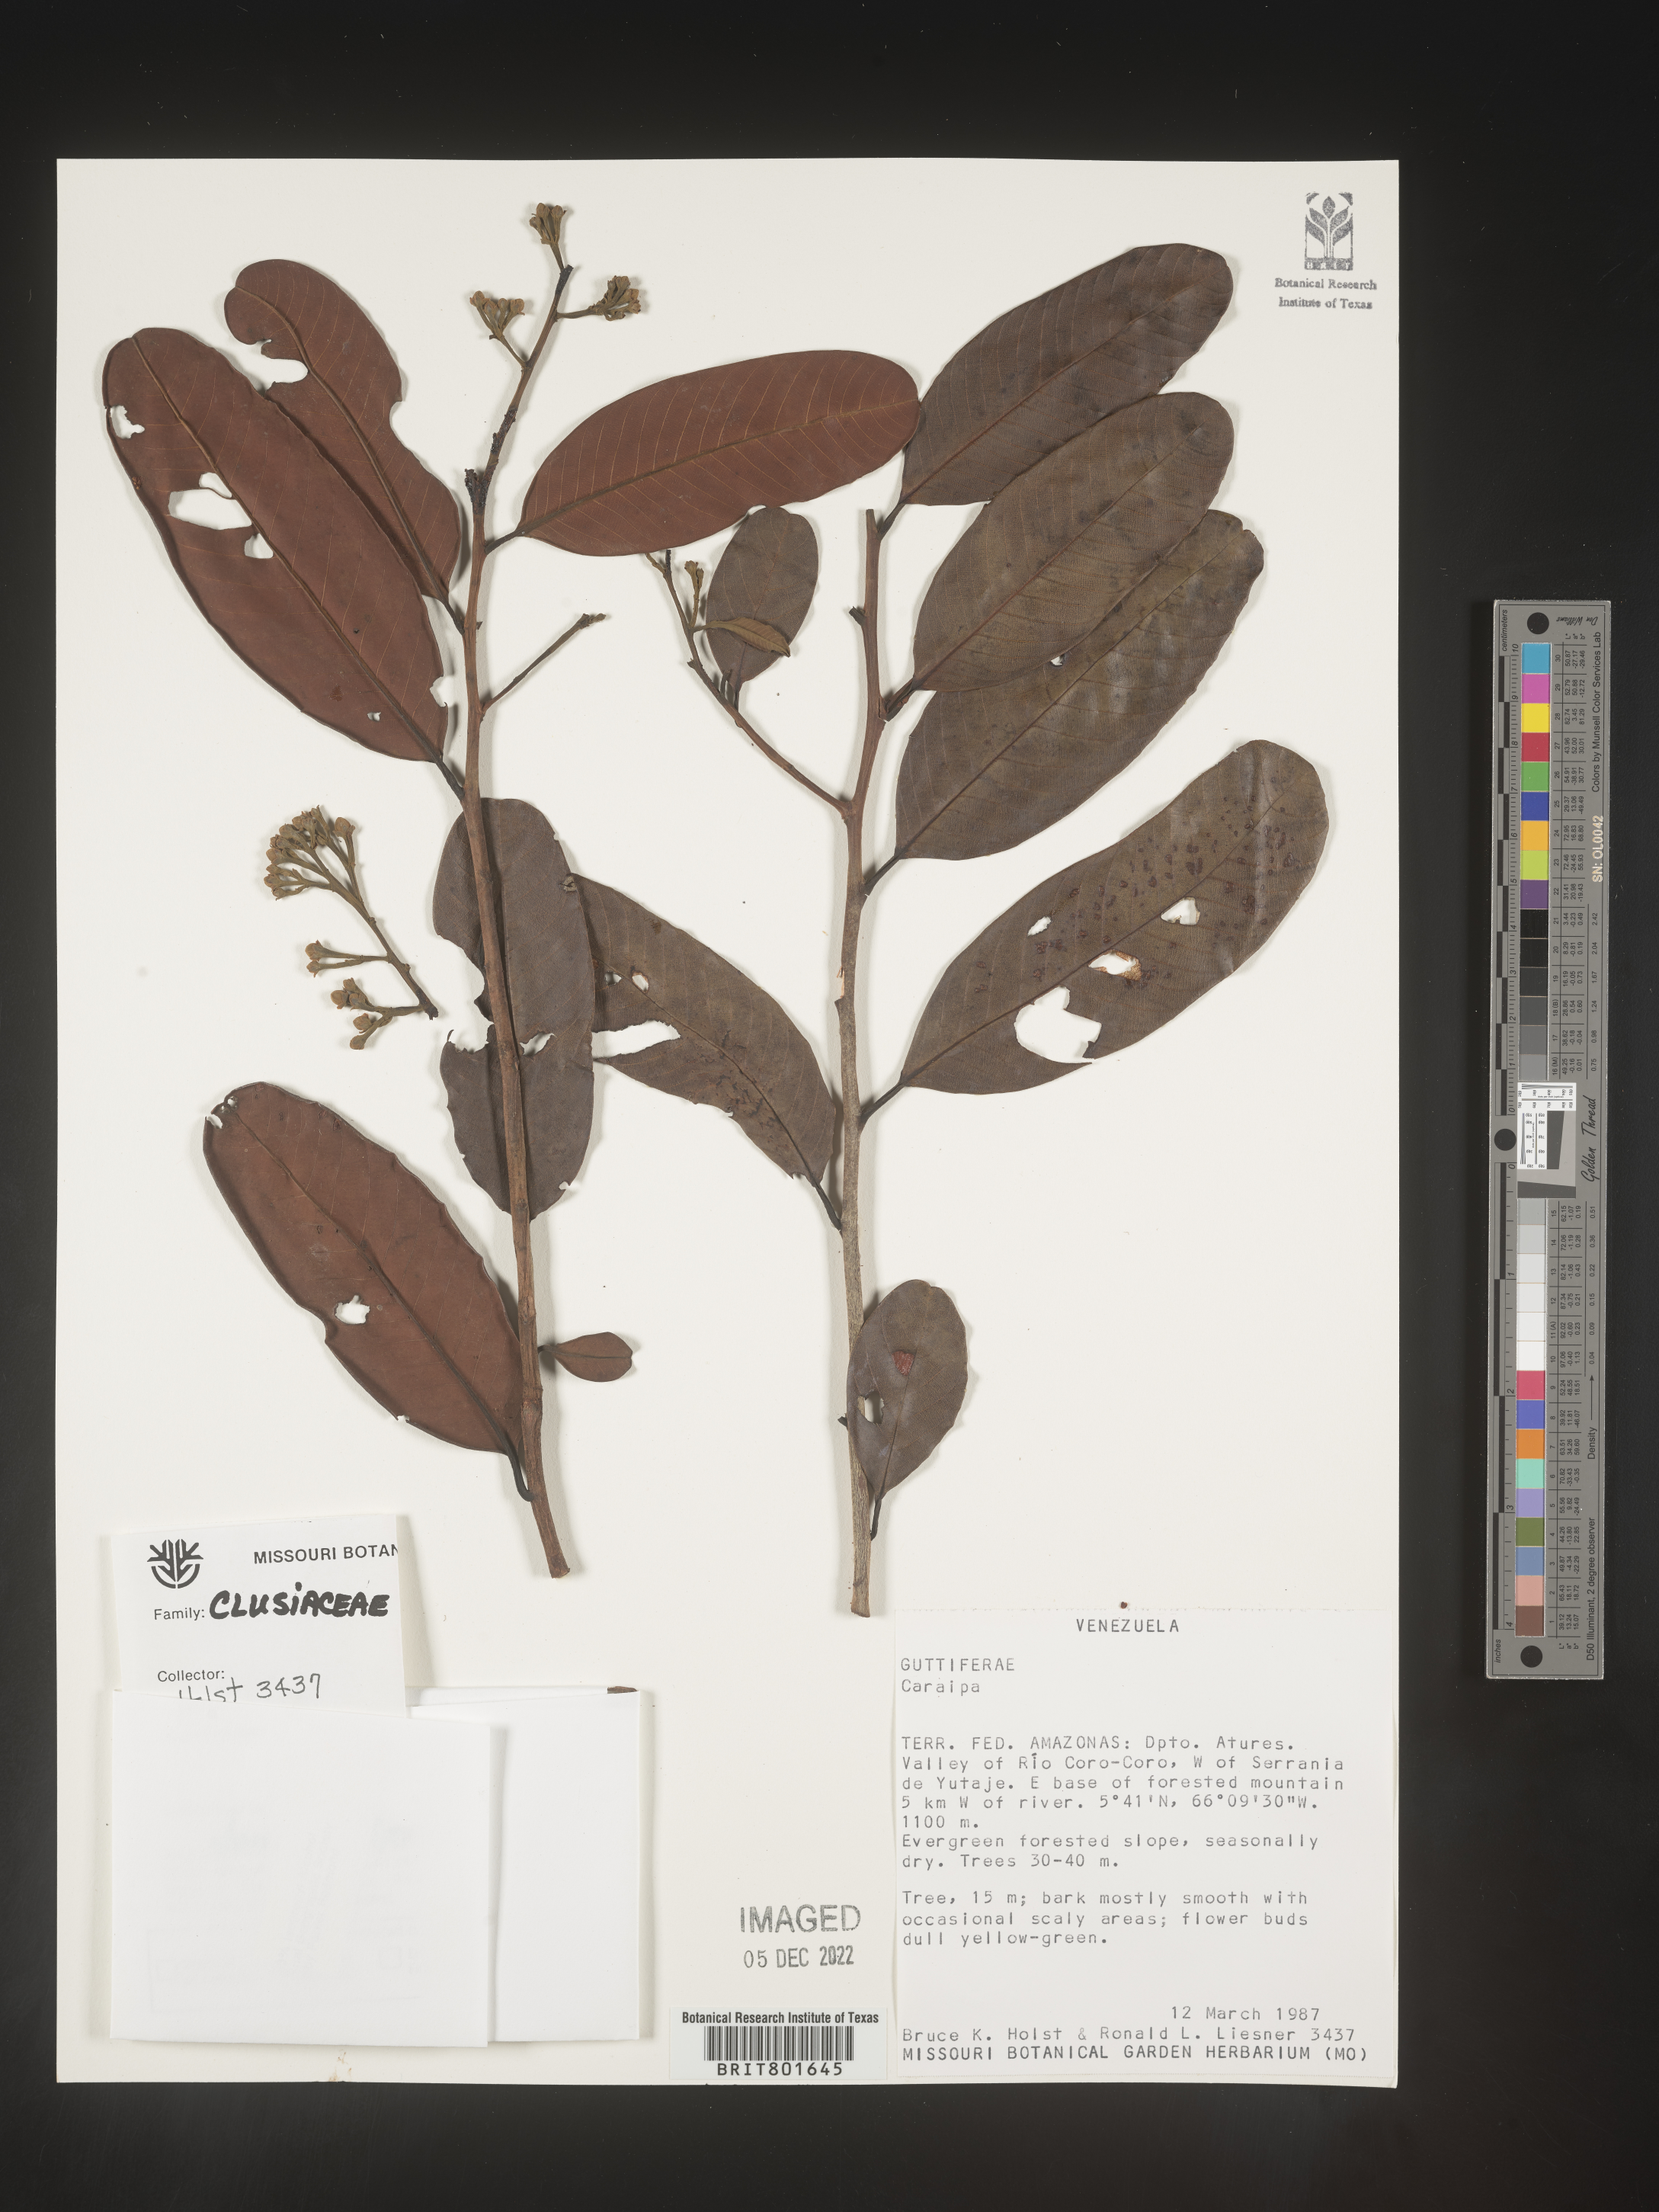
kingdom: Plantae
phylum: Tracheophyta
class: Magnoliopsida
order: Malpighiales
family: Calophyllaceae
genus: Caraipa
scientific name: Caraipa
